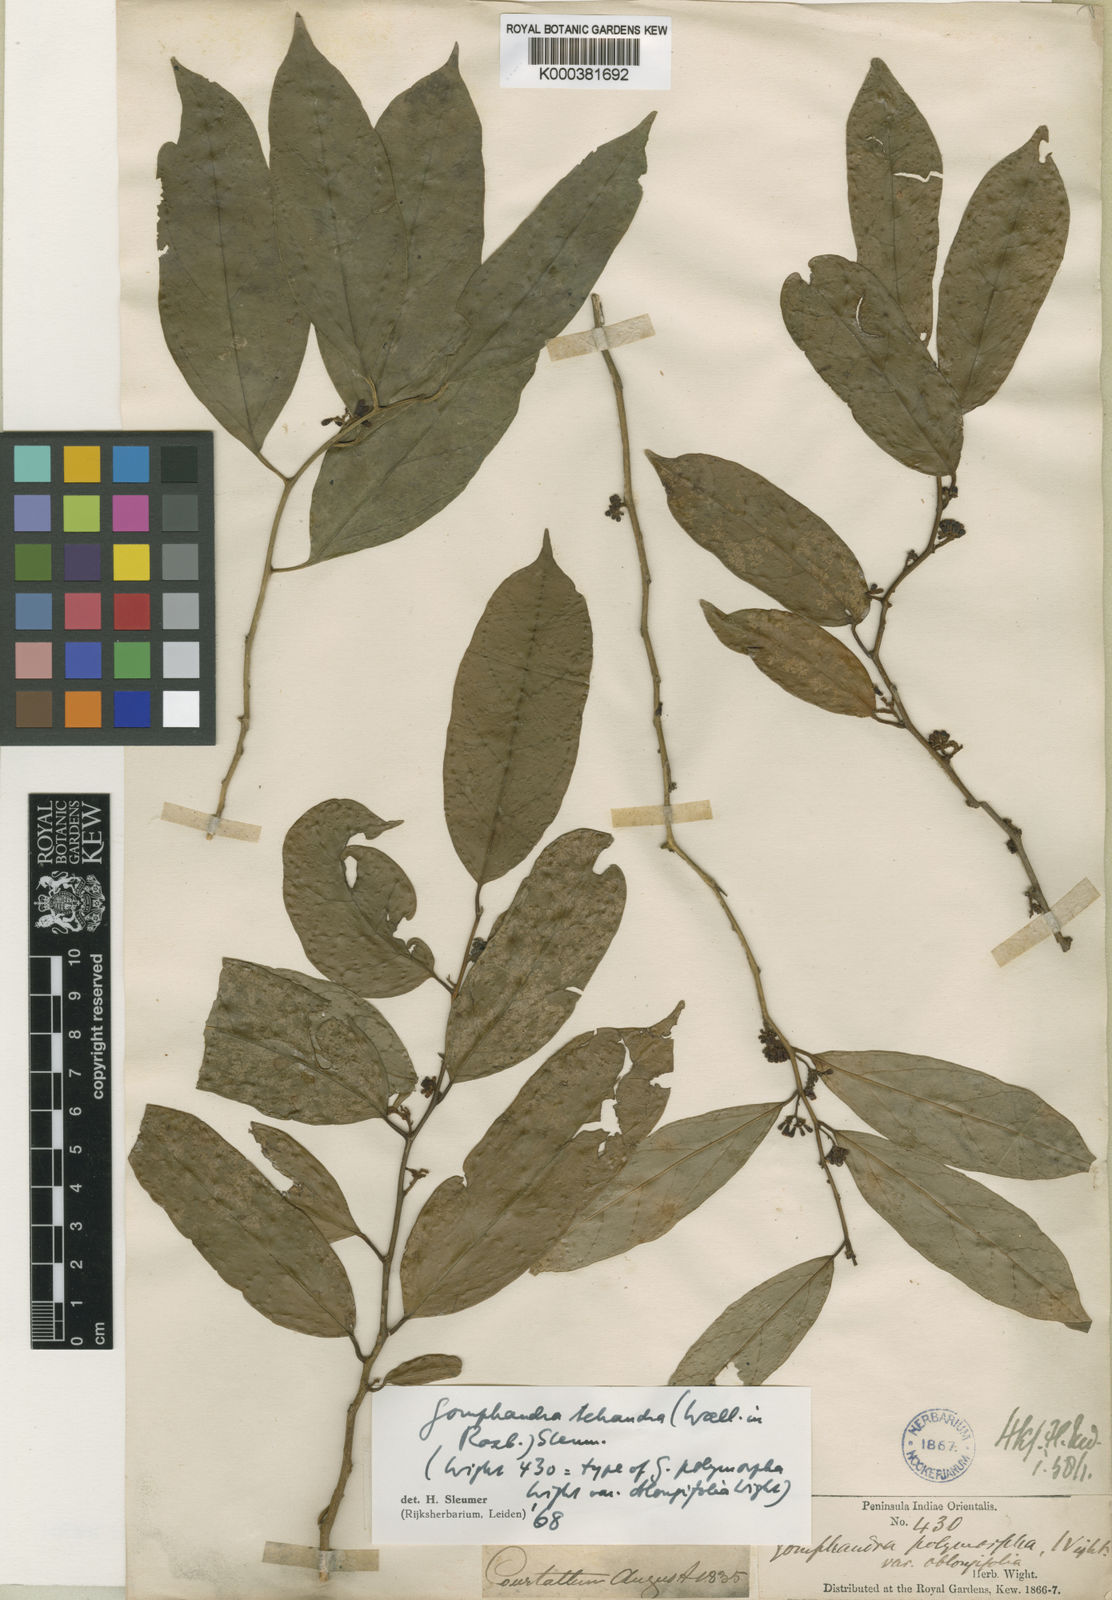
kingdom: Plantae
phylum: Tracheophyta
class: Magnoliopsida
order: Cardiopteridales
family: Stemonuraceae
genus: Gomphandra
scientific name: Gomphandra tetrandra
